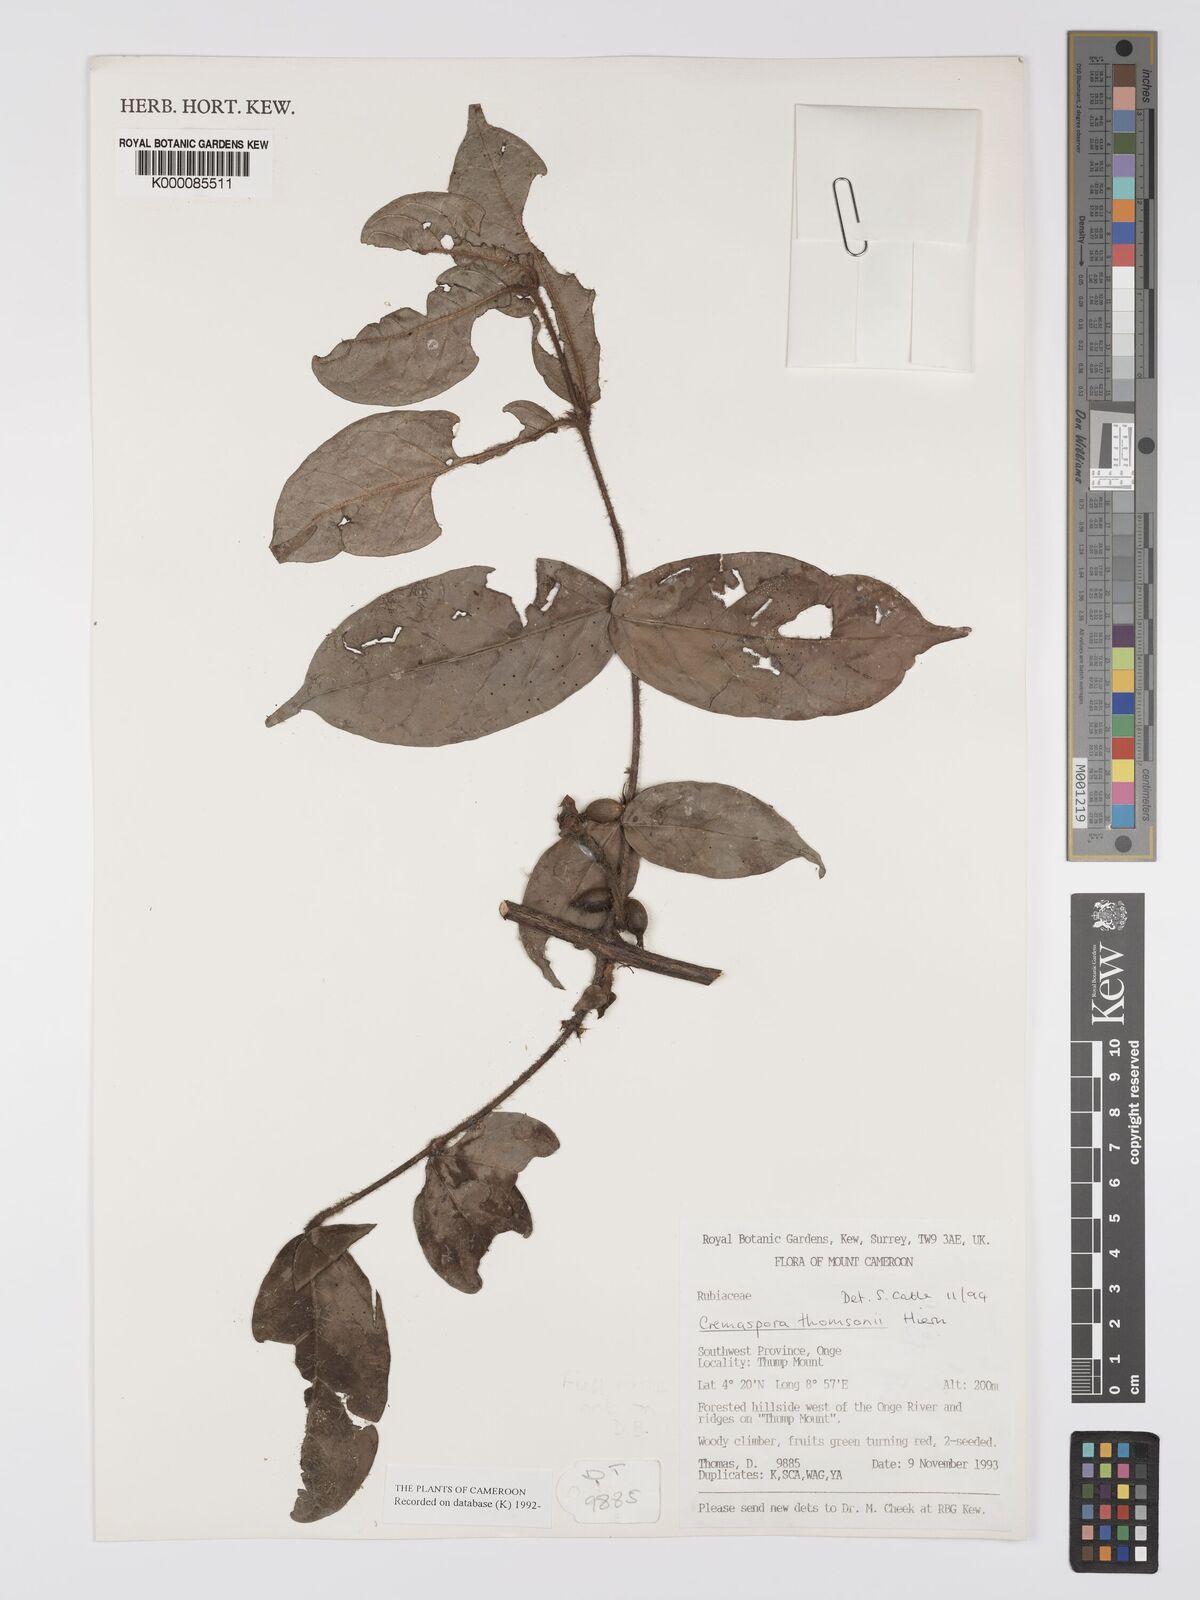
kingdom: Plantae
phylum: Tracheophyta
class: Magnoliopsida
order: Gentianales
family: Rubiaceae
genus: Cremaspora
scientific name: Cremaspora thomsonii
